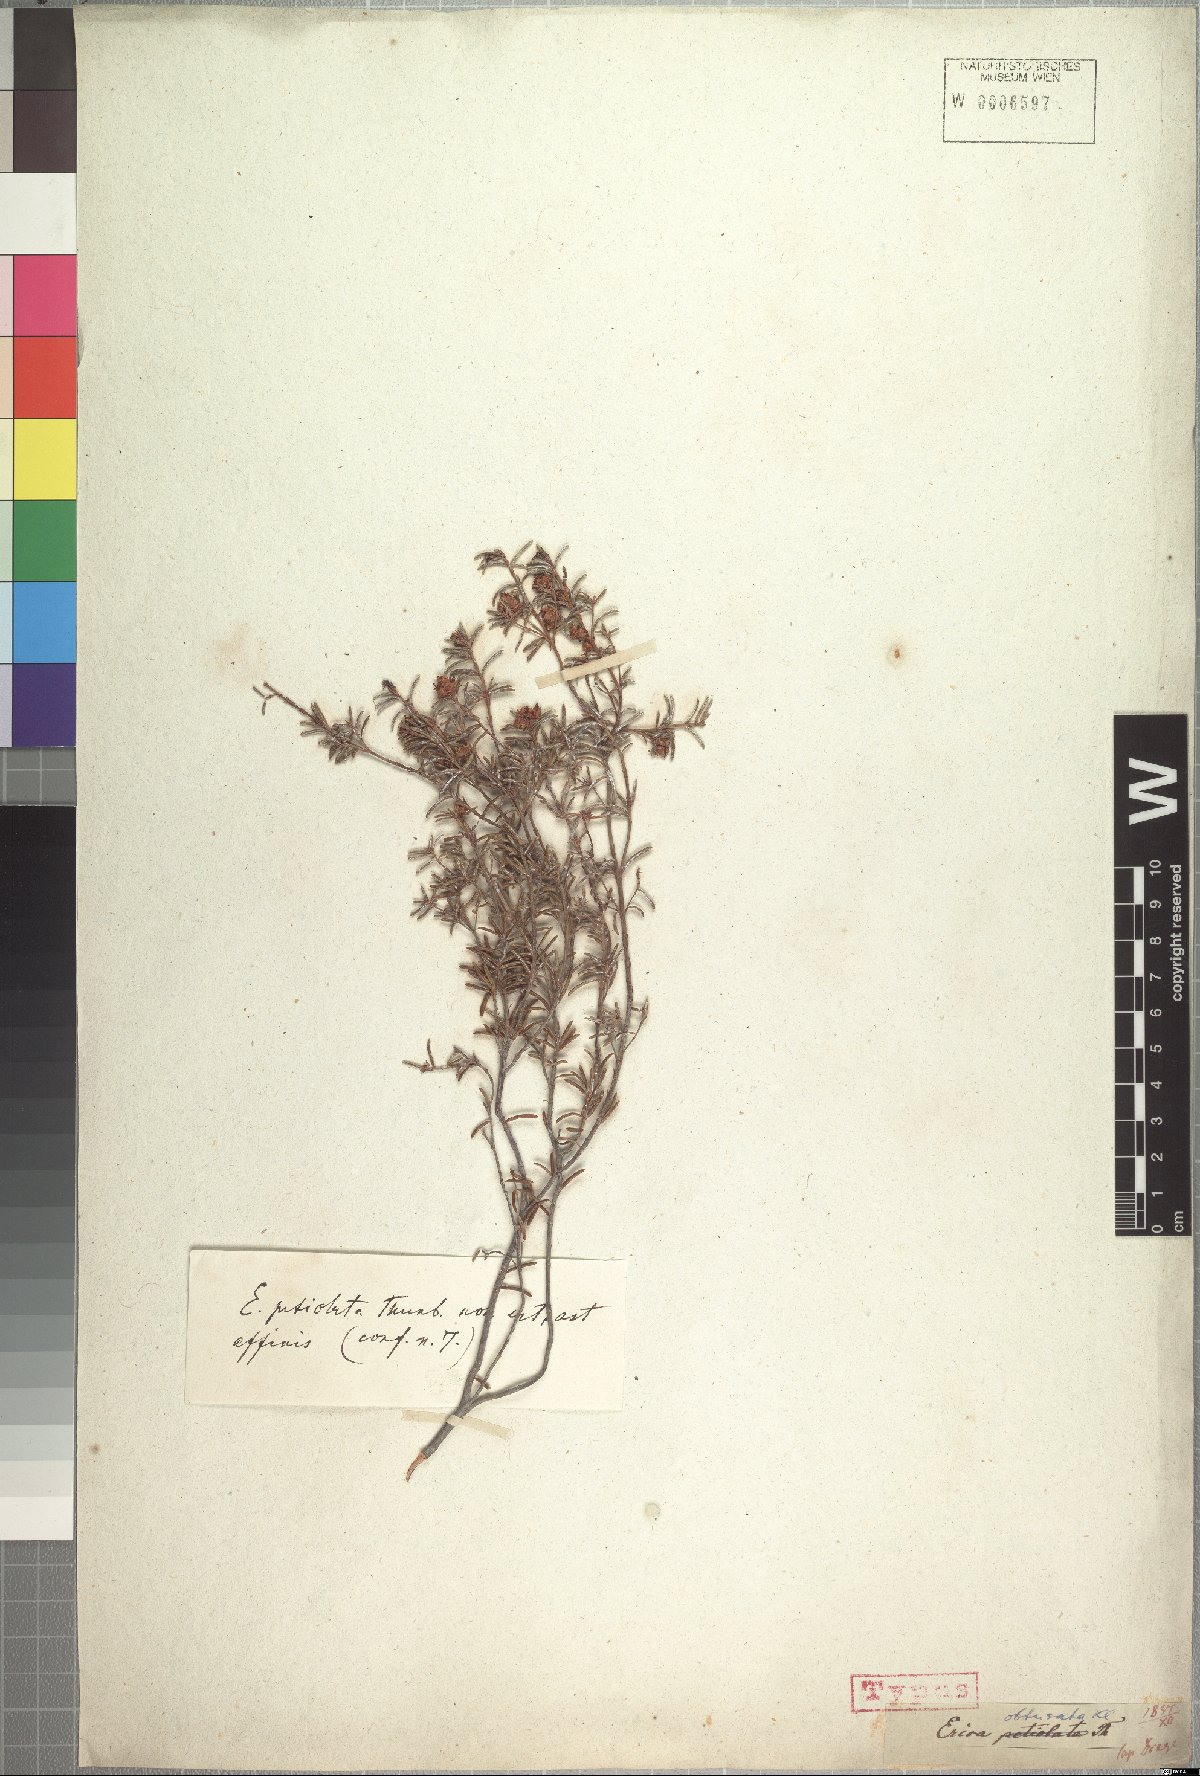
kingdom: Plantae
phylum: Tracheophyta
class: Magnoliopsida
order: Ericales
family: Ericaceae
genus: Erica
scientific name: Erica obtusata
